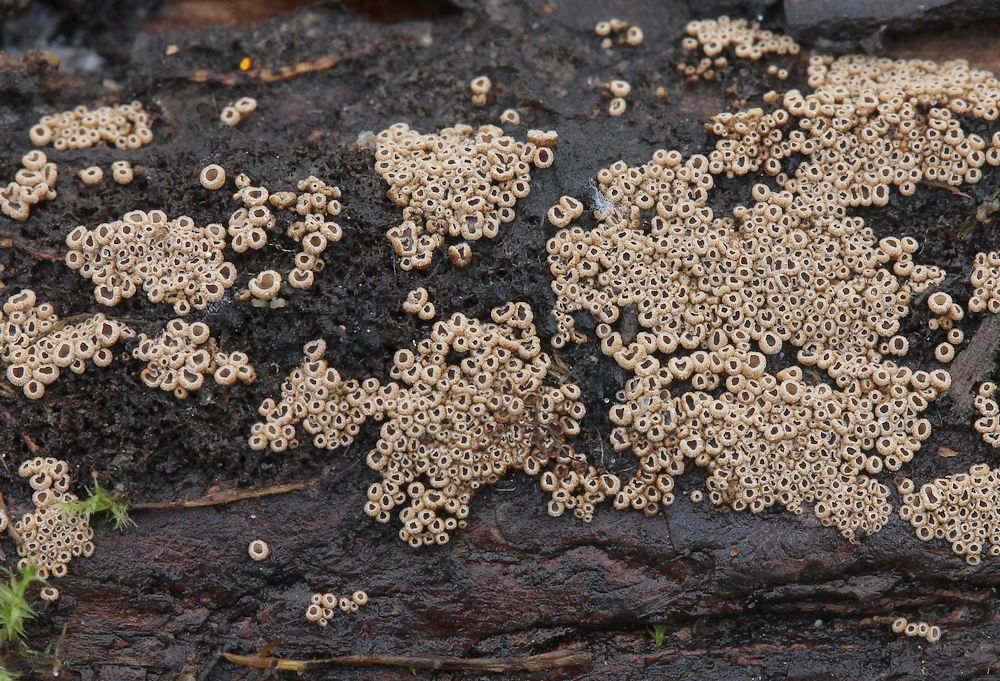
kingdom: Fungi
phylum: Basidiomycota
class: Agaricomycetes
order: Agaricales
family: Niaceae
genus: Merismodes
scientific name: Merismodes anomala
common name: almindelig læderskål
